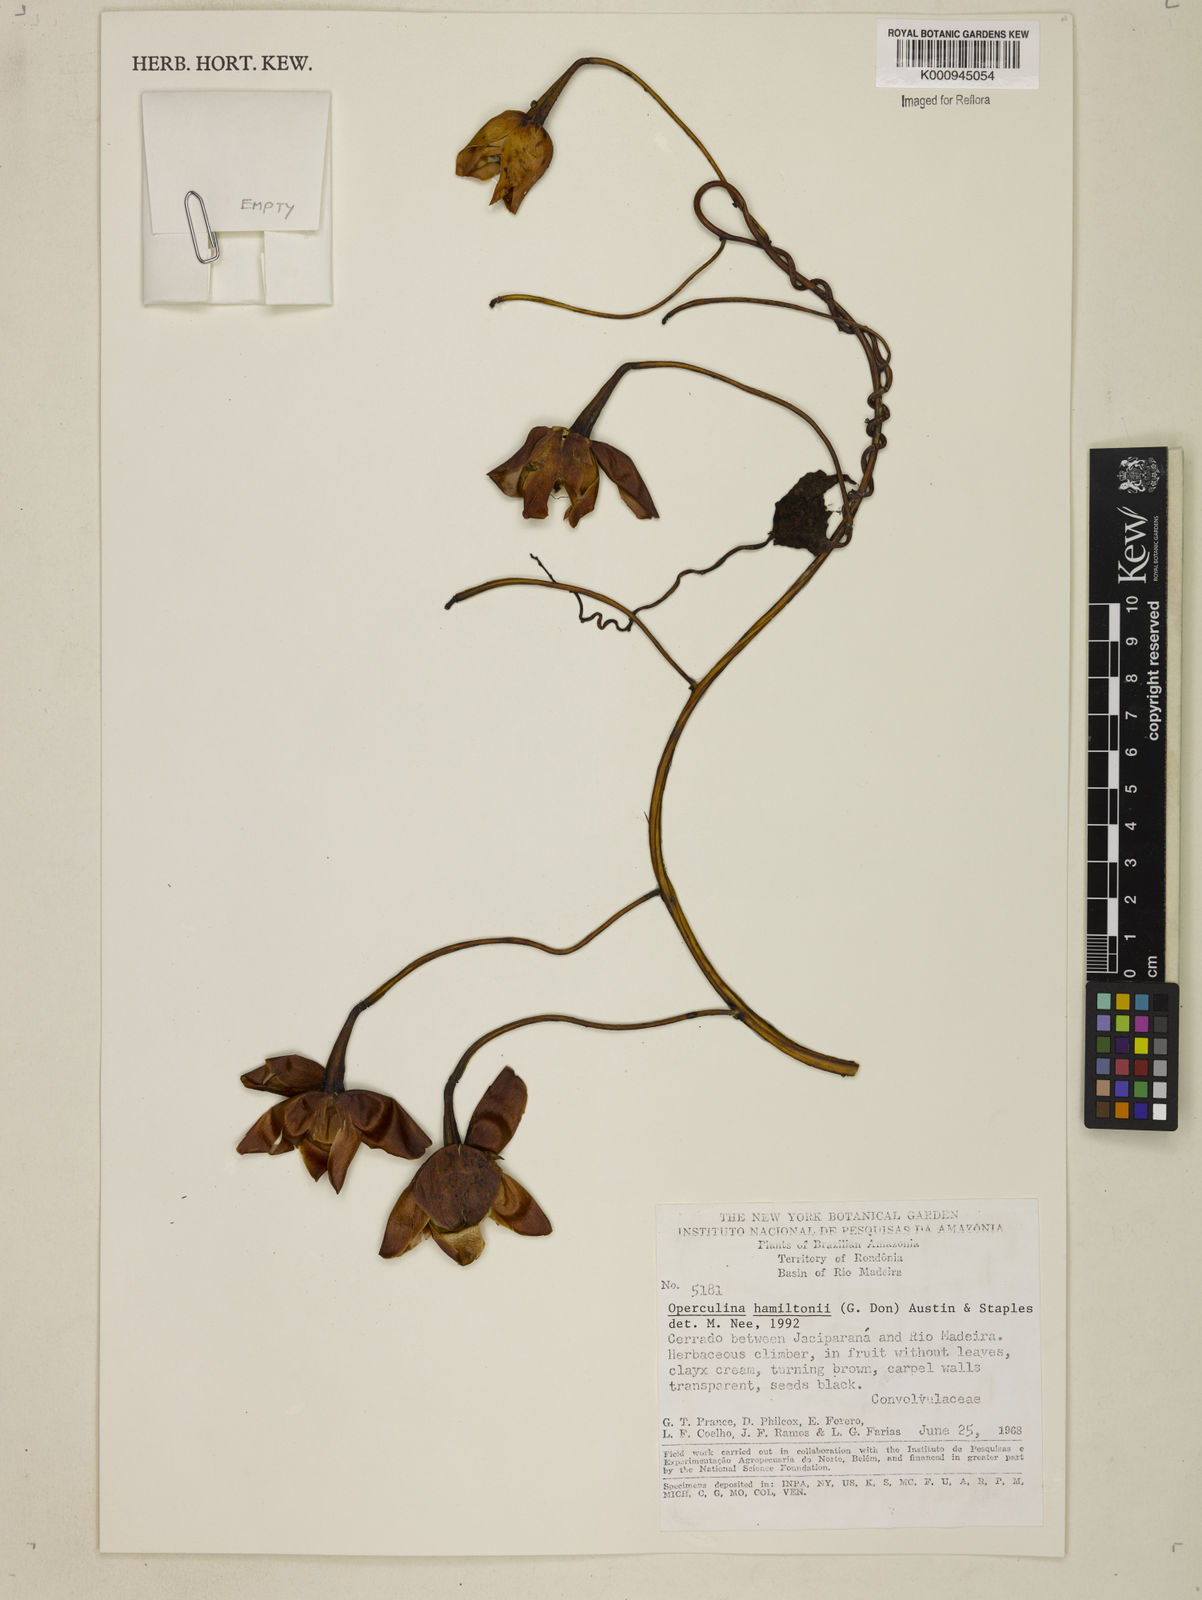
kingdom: Plantae
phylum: Tracheophyta
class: Magnoliopsida
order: Solanales
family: Convolvulaceae
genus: Operculina
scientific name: Operculina hamiltonii
